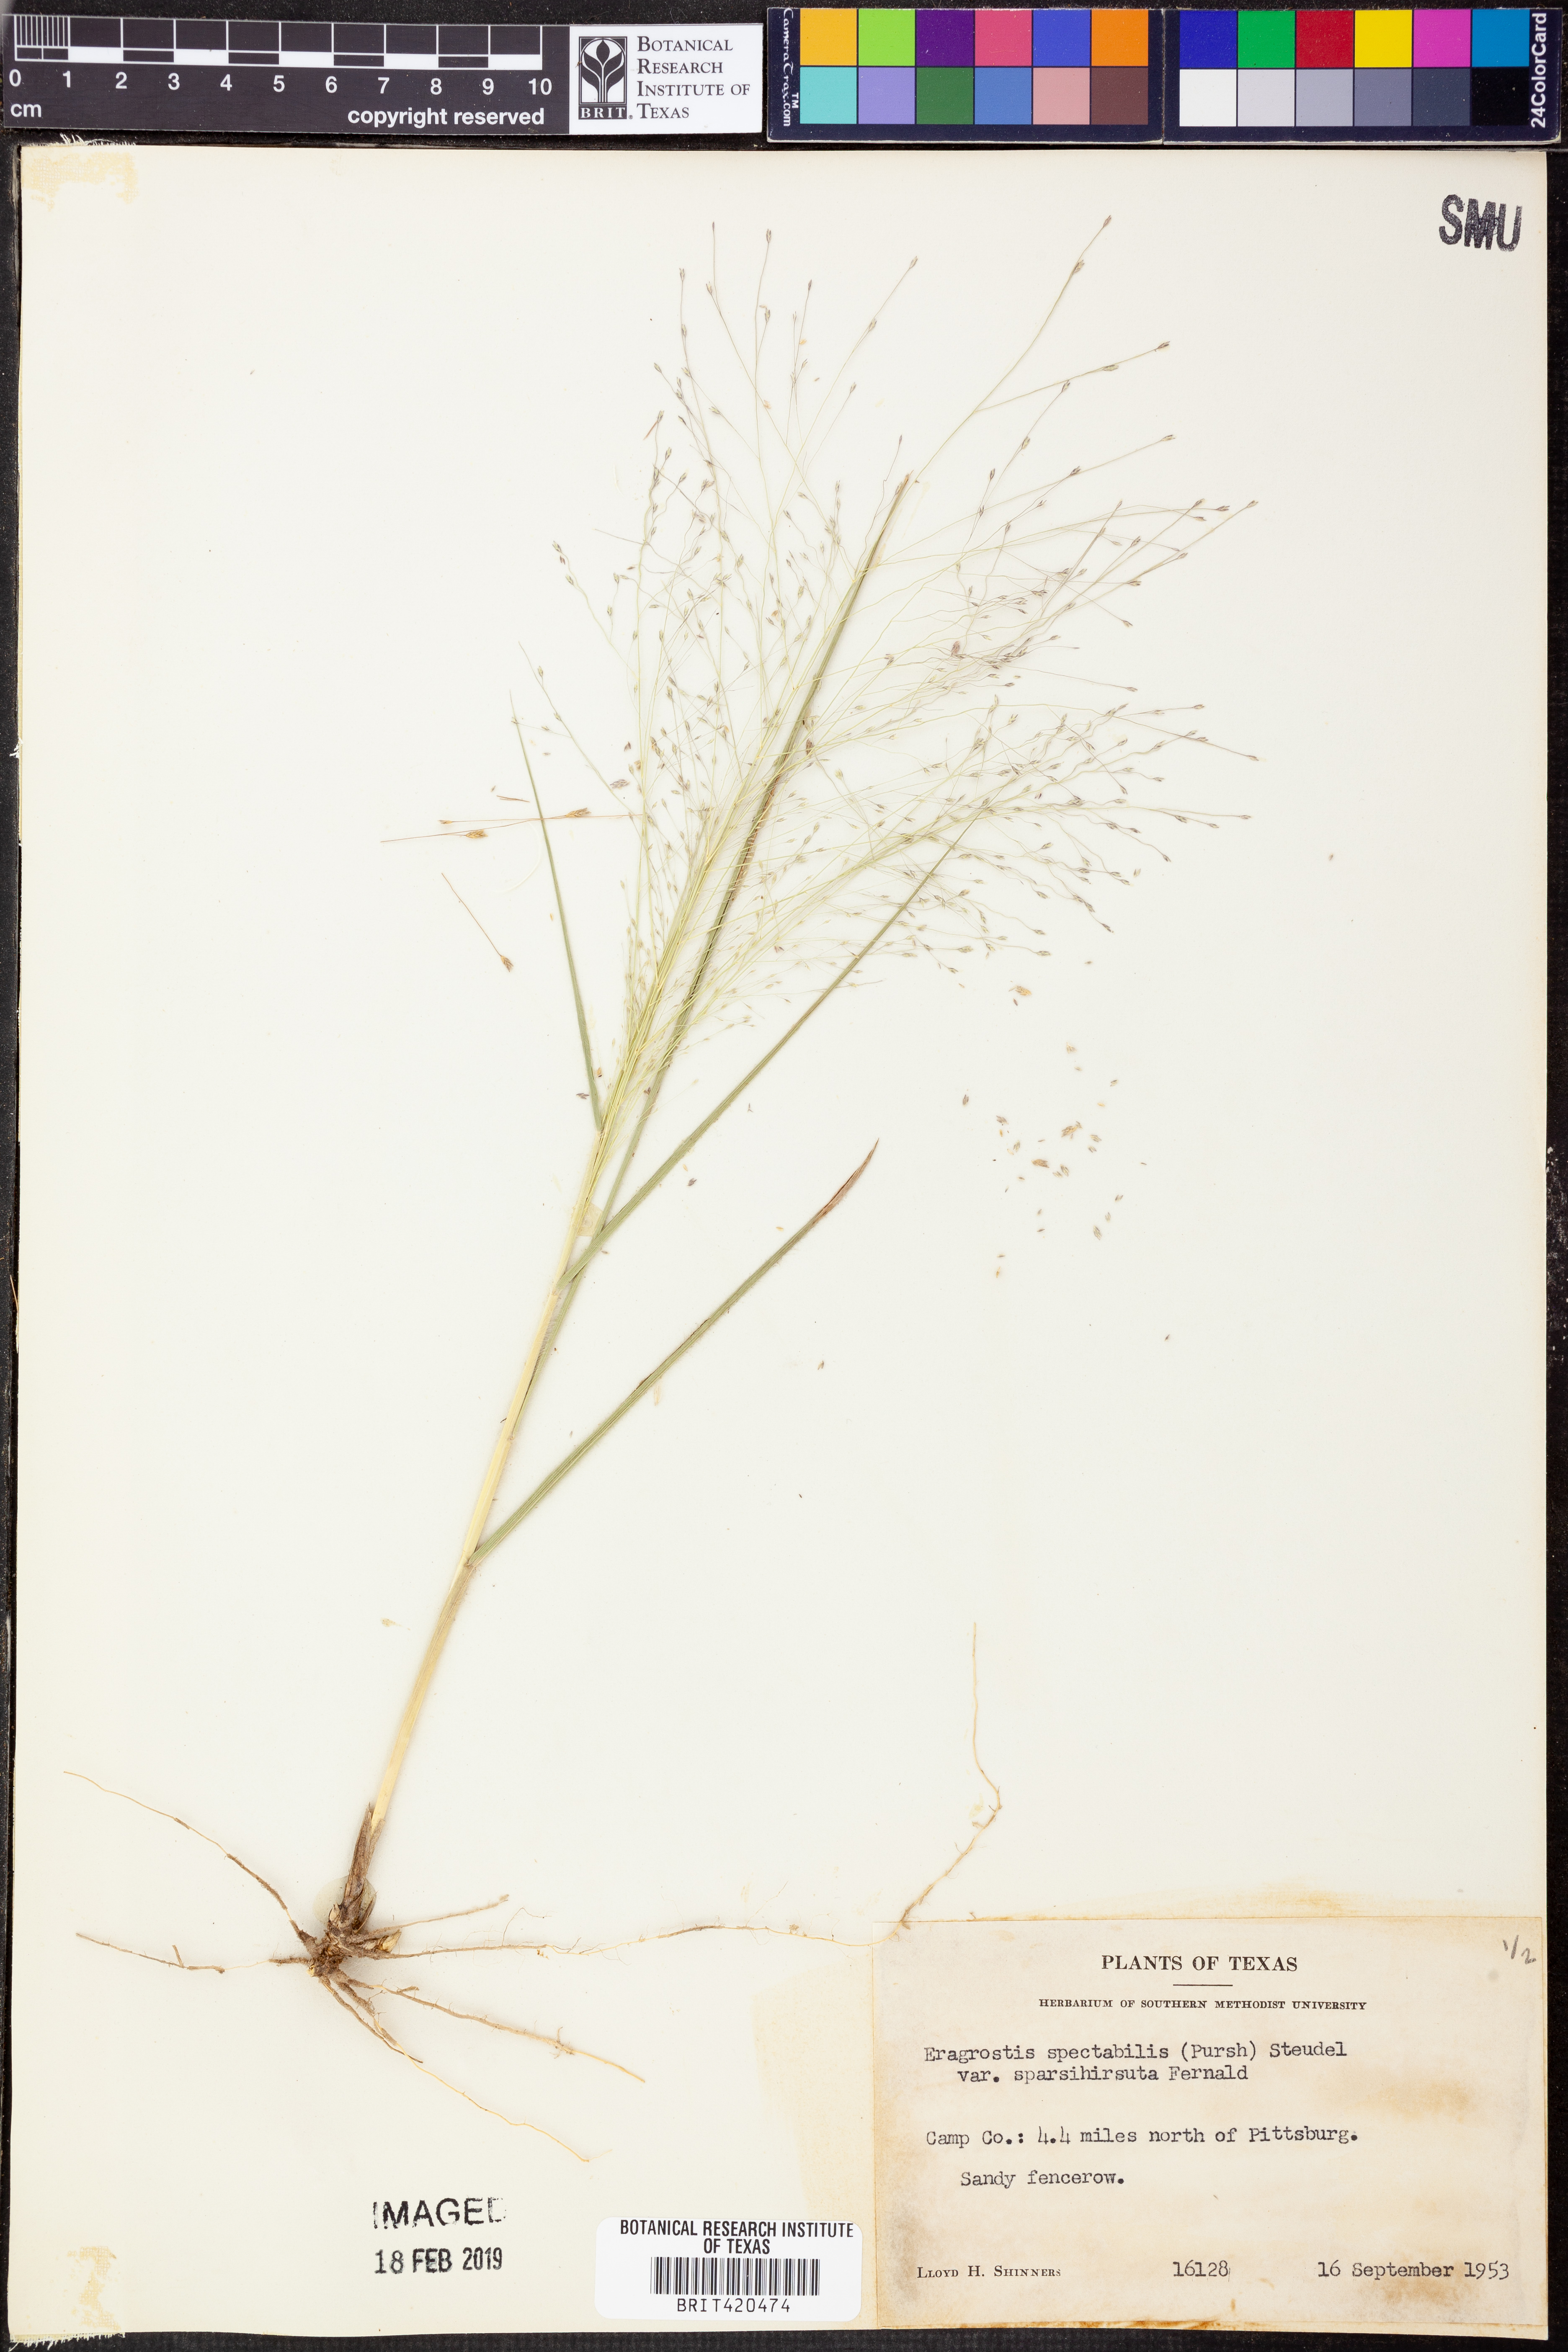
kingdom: Plantae
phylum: Tracheophyta
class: Liliopsida
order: Poales
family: Poaceae
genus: Eragrostis
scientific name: Eragrostis spectabilis
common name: Petticoat-climber
